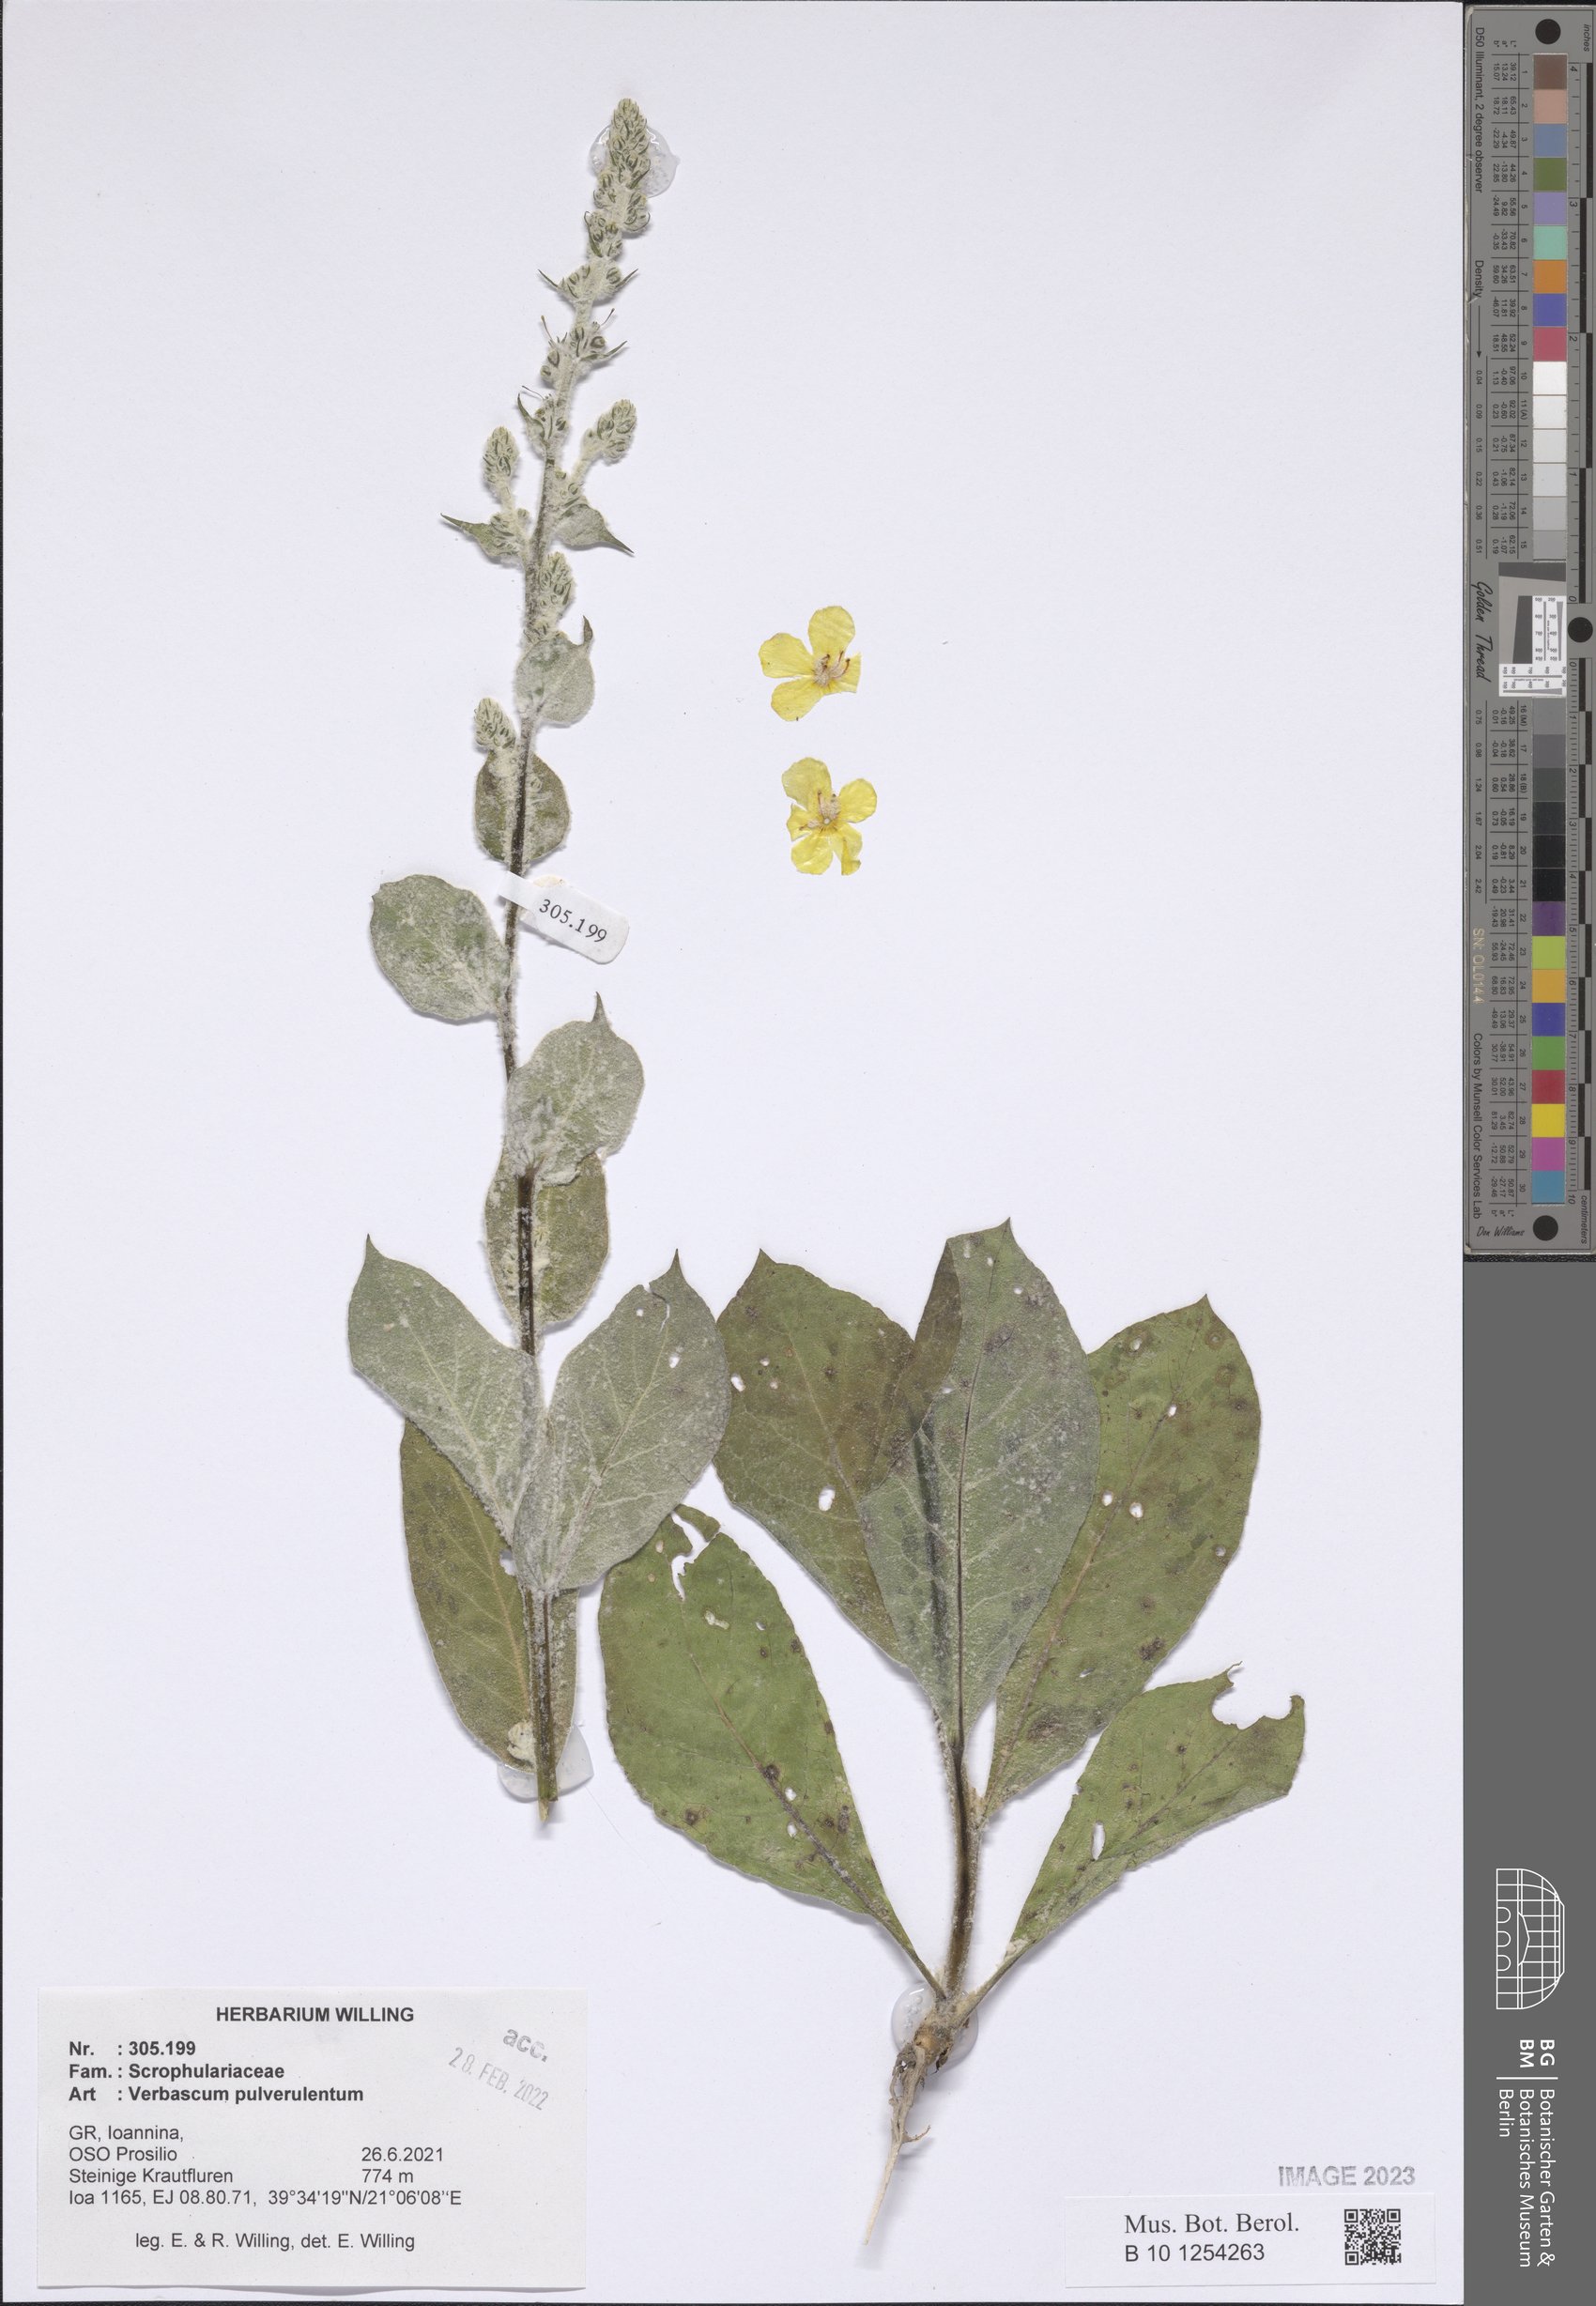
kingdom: Plantae
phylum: Tracheophyta
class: Magnoliopsida
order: Lamiales
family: Scrophulariaceae
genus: Verbascum
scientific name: Verbascum pulverulentum
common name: Broad-leaf mullein
